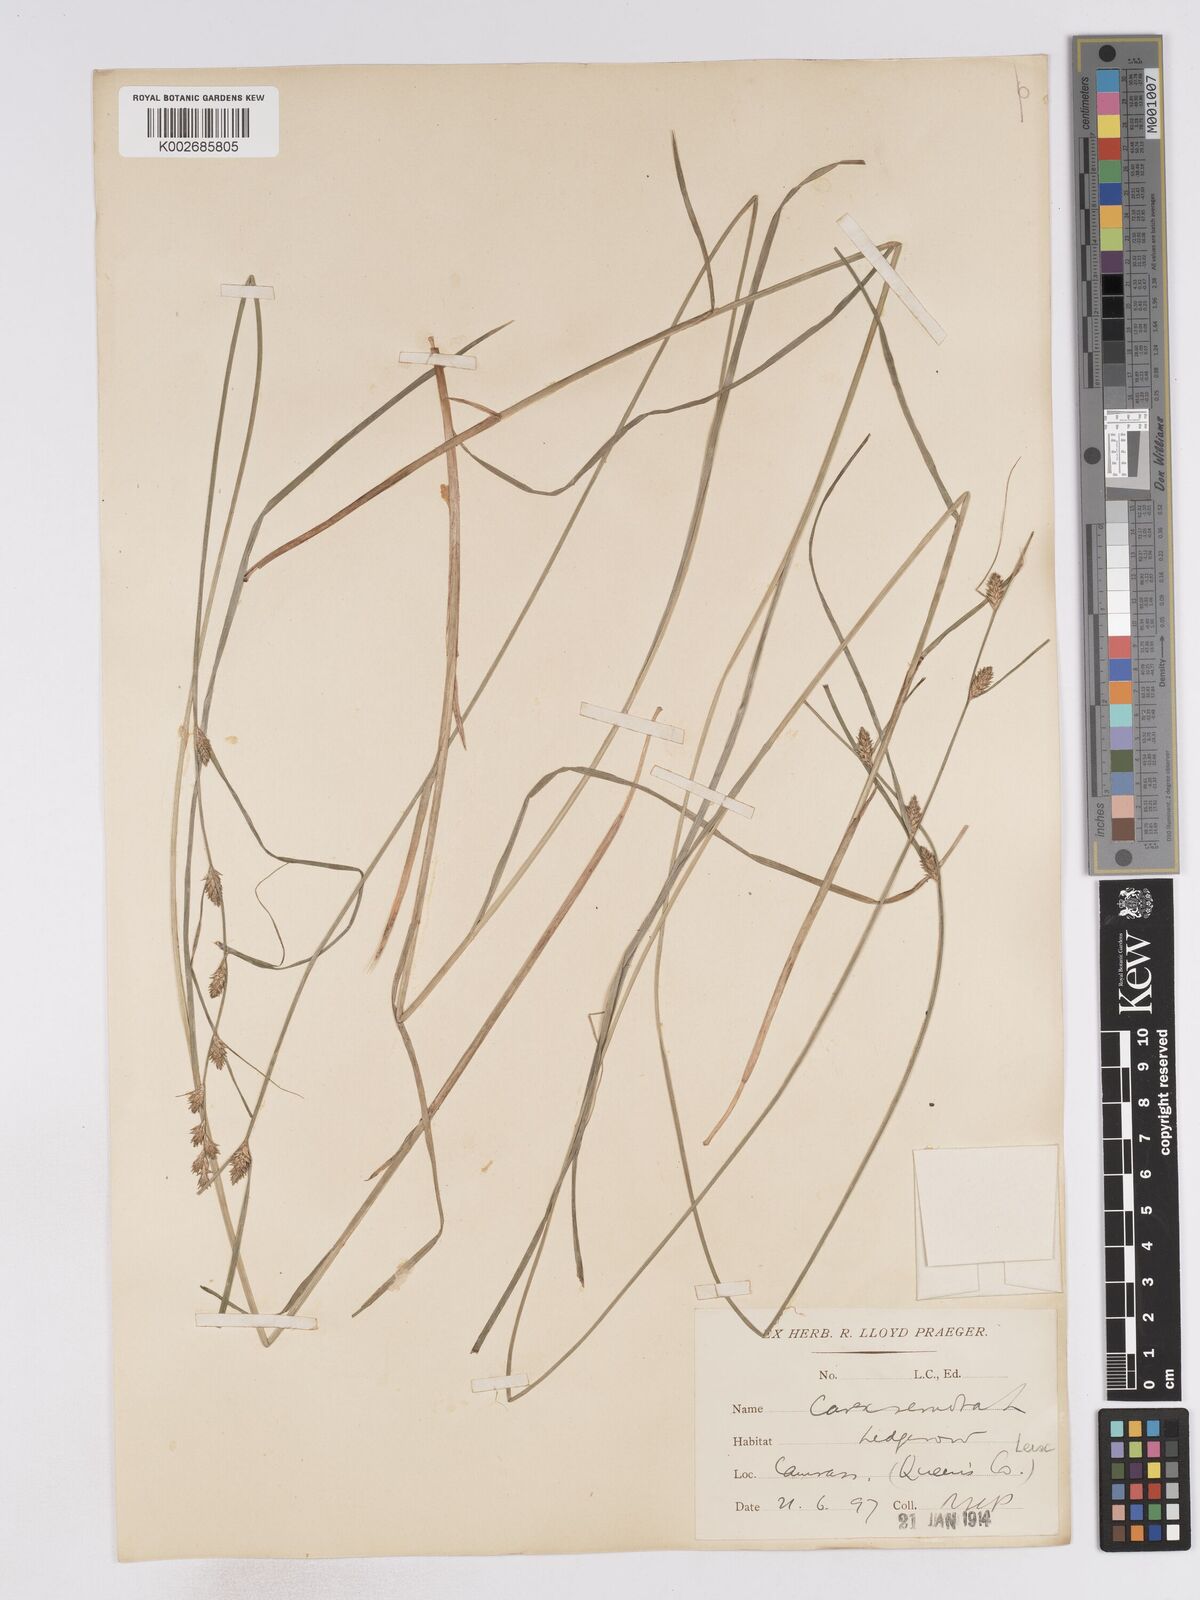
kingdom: Plantae
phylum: Tracheophyta
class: Liliopsida
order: Poales
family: Cyperaceae
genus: Carex
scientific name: Carex remota
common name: Remote sedge
